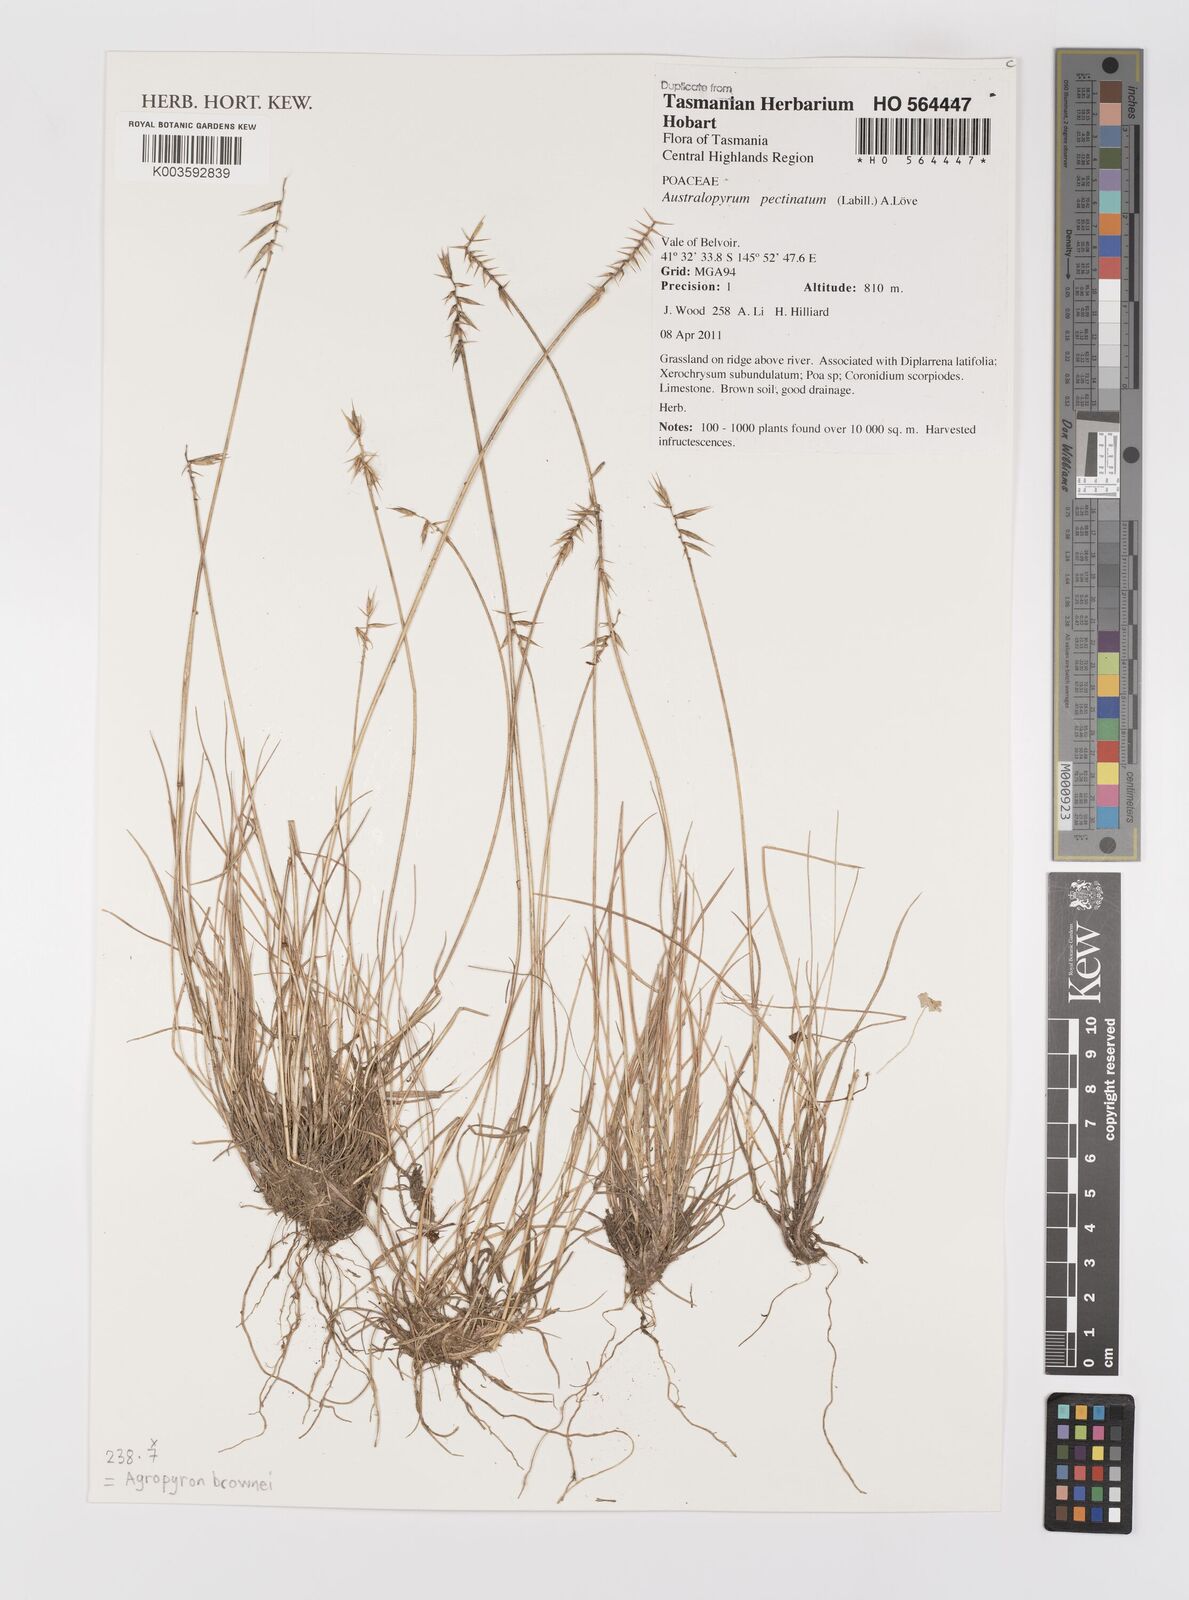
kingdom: Plantae
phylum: Tracheophyta
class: Liliopsida
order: Poales
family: Poaceae
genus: Australopyrum
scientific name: Australopyrum pectinatum
